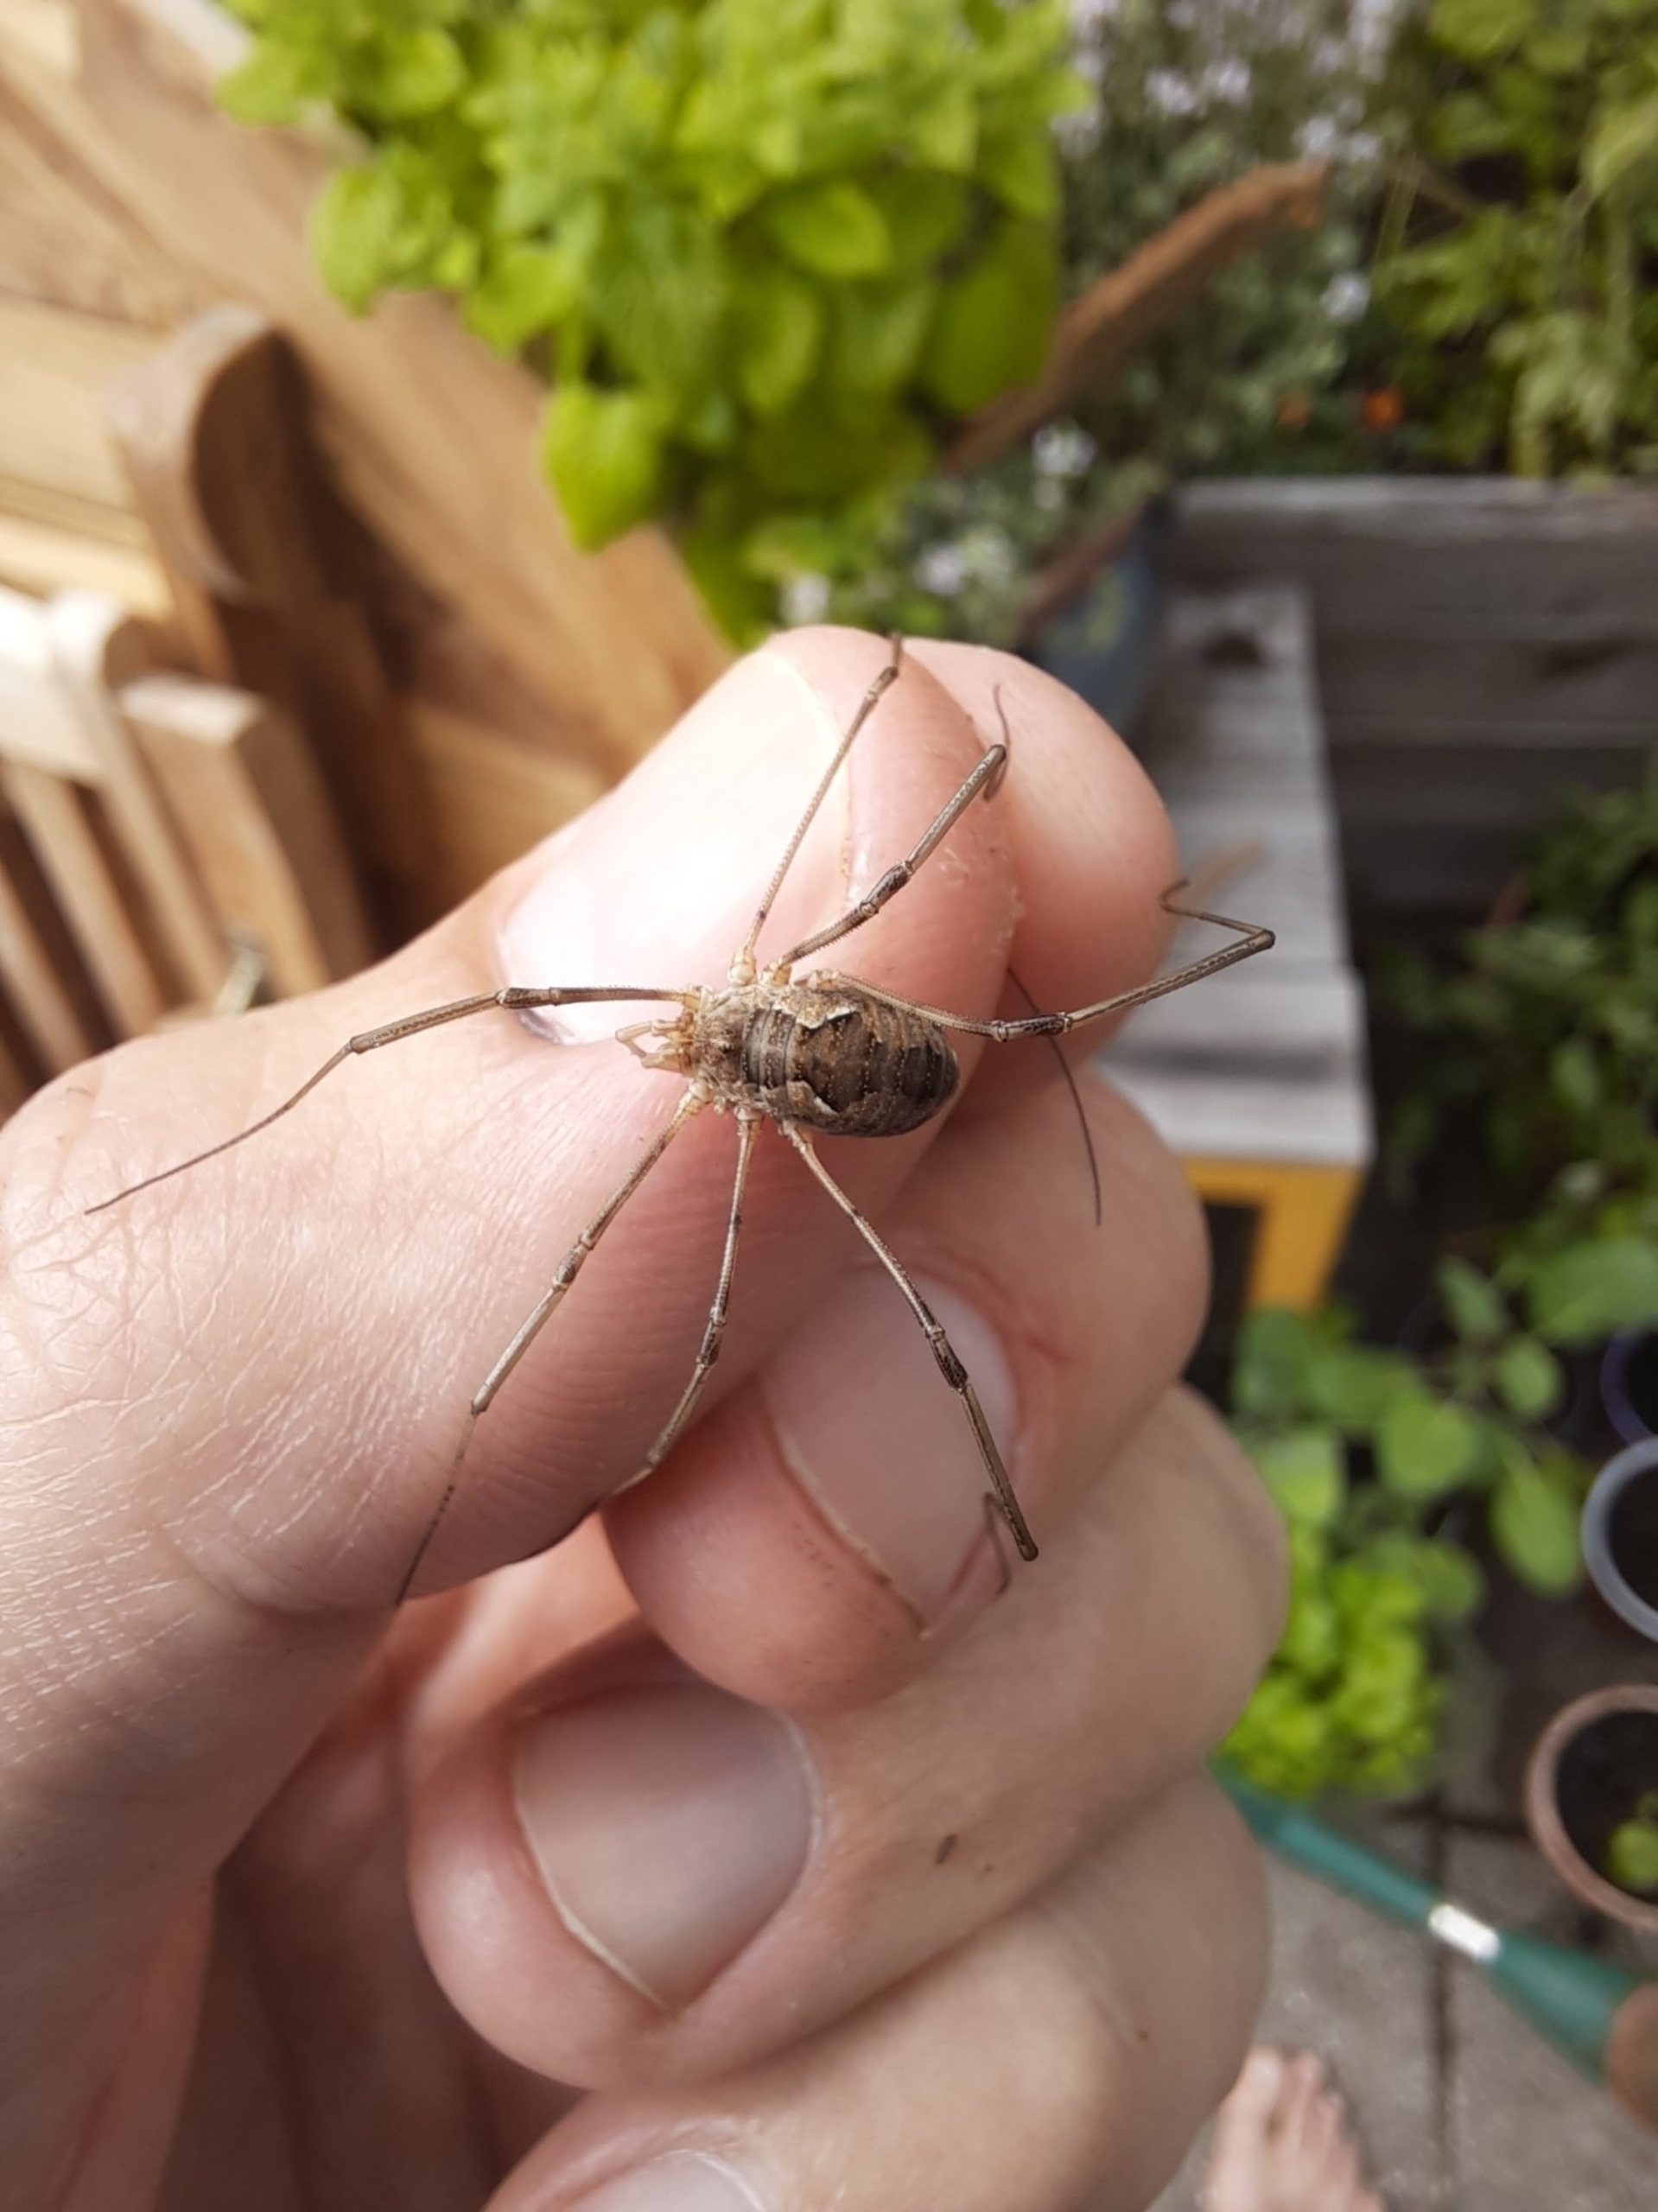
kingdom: Animalia
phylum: Arthropoda
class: Arachnida
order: Opiliones
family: Phalangiidae
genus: Phalangium
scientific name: Phalangium opilio
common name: Hornmejer
